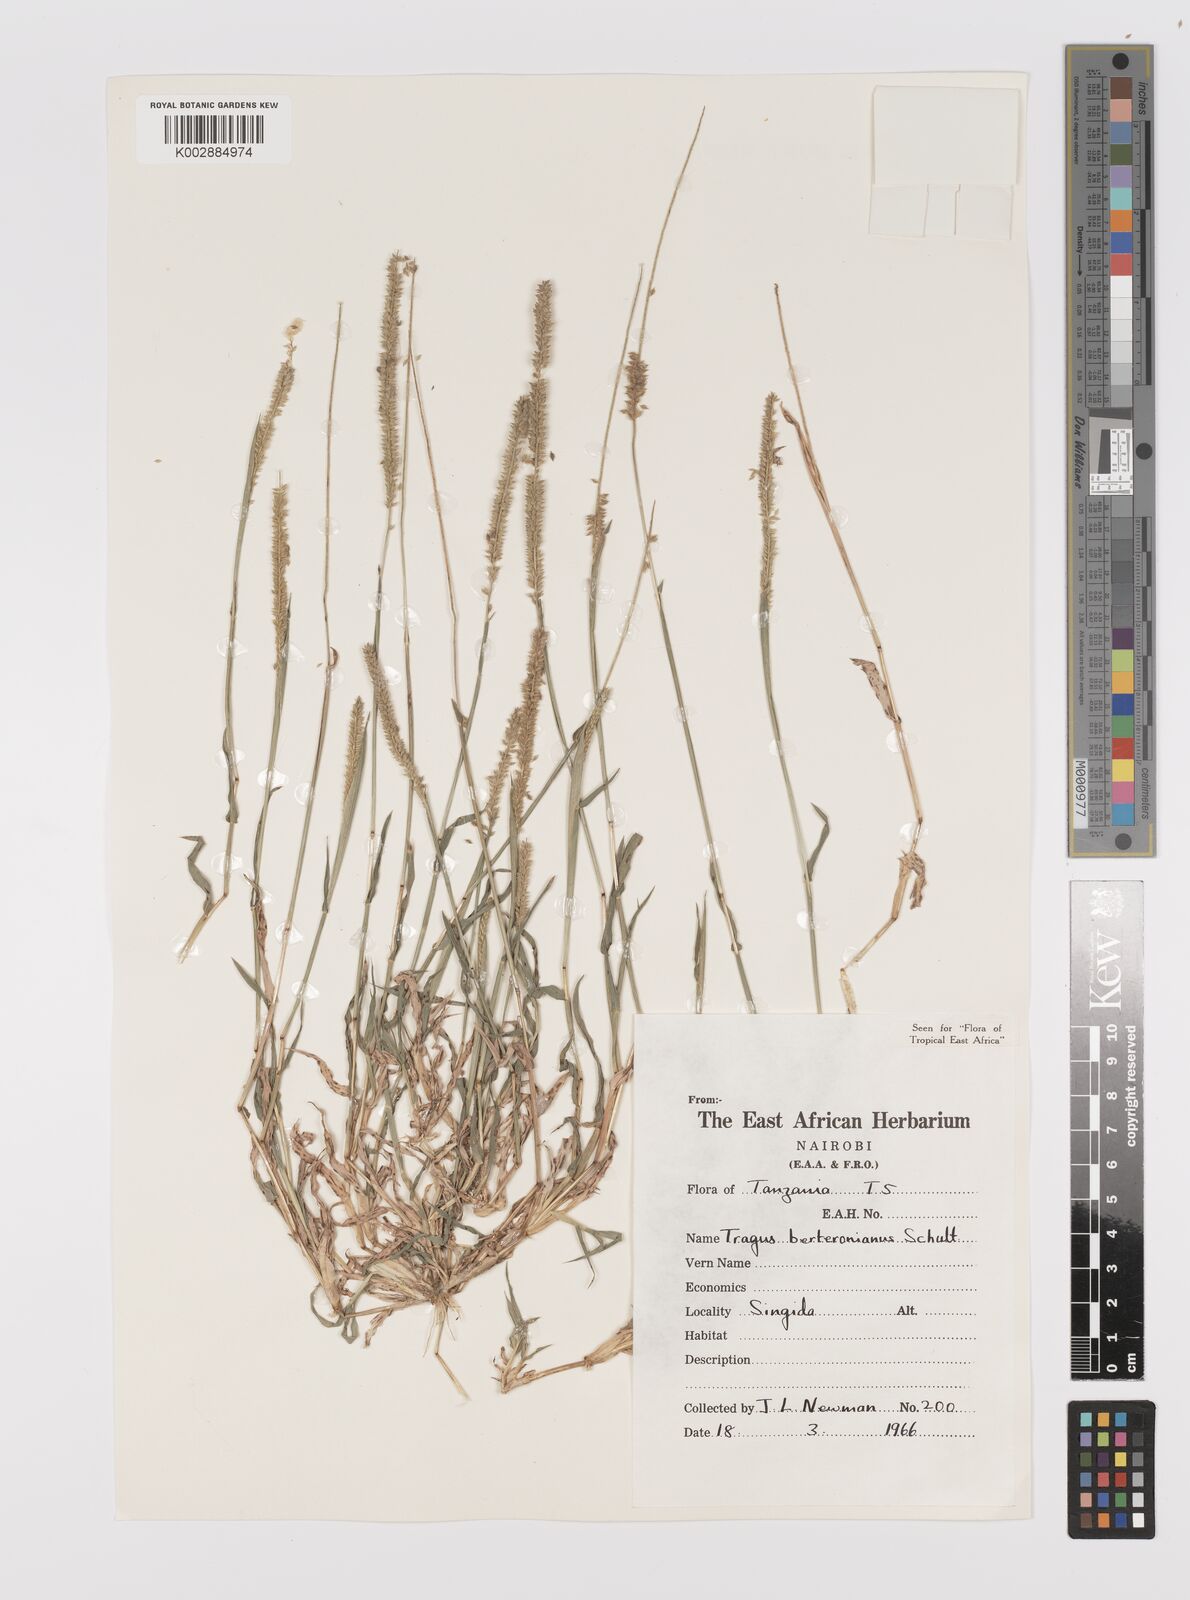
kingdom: Plantae
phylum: Tracheophyta
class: Liliopsida
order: Poales
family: Poaceae
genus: Tragus
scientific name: Tragus berteronianus
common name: African bur-grass
